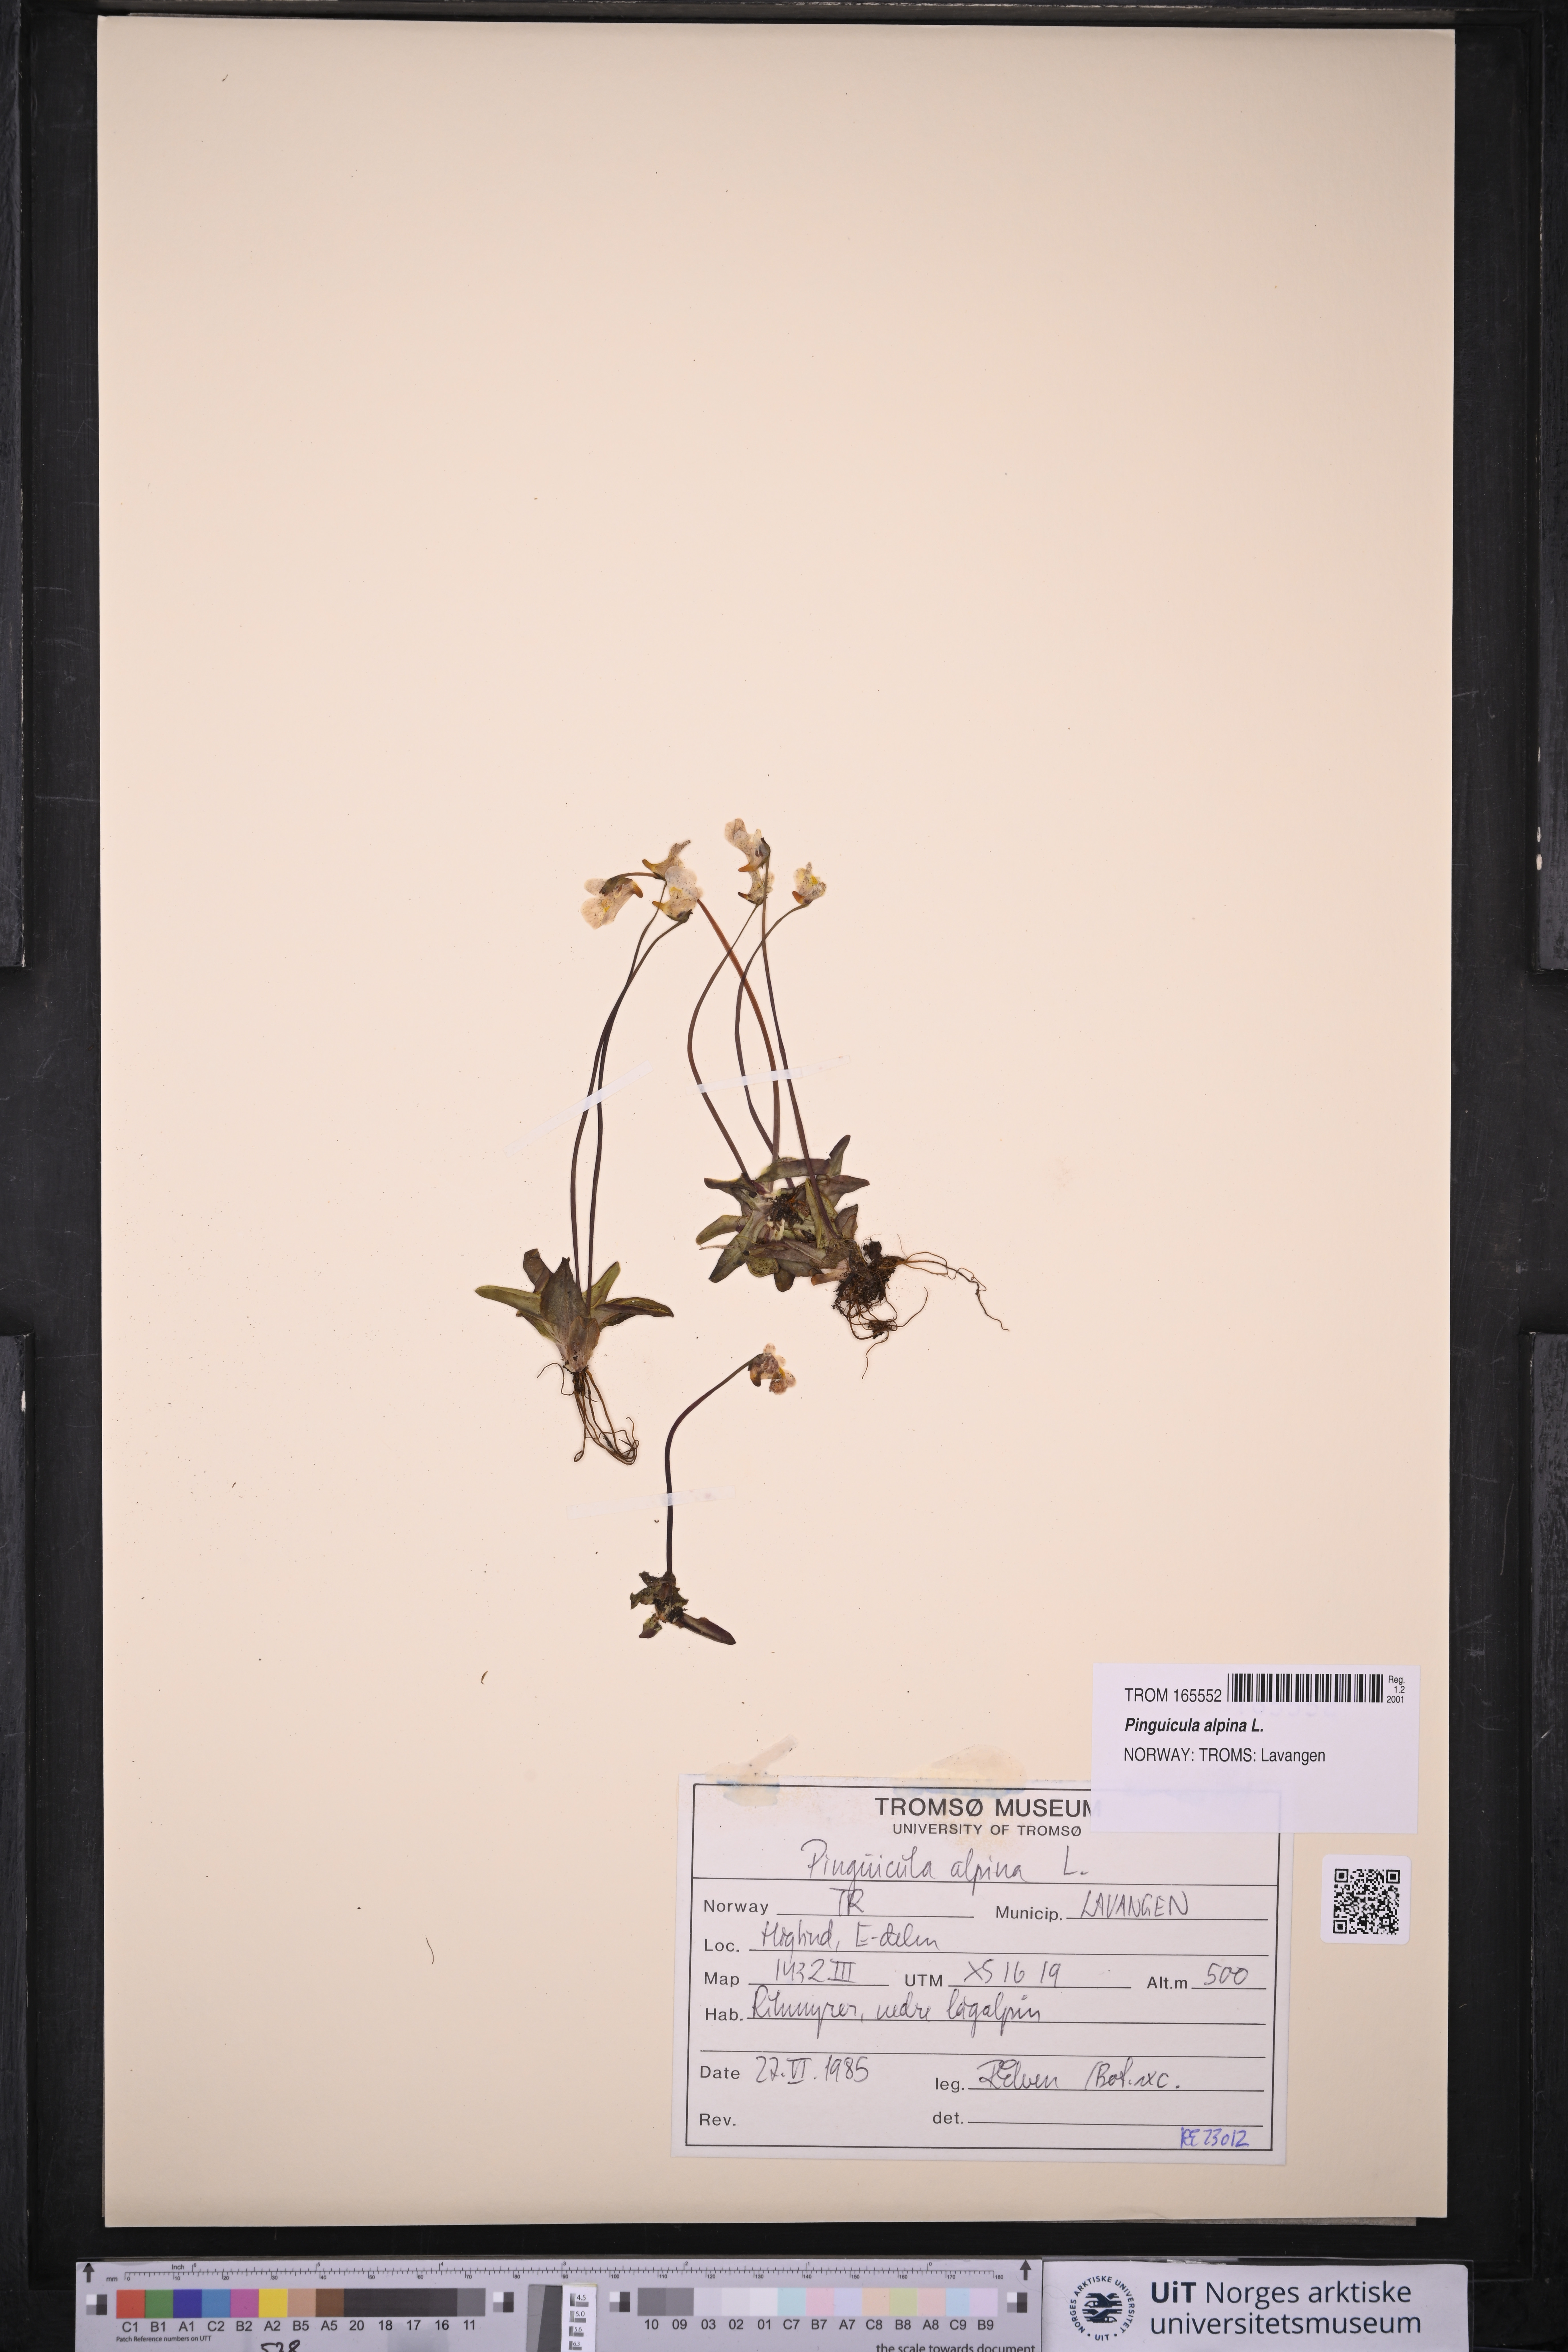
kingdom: Plantae
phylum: Tracheophyta
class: Magnoliopsida
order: Lamiales
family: Lentibulariaceae
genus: Pinguicula
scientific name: Pinguicula alpina
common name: Alpine butterwort
